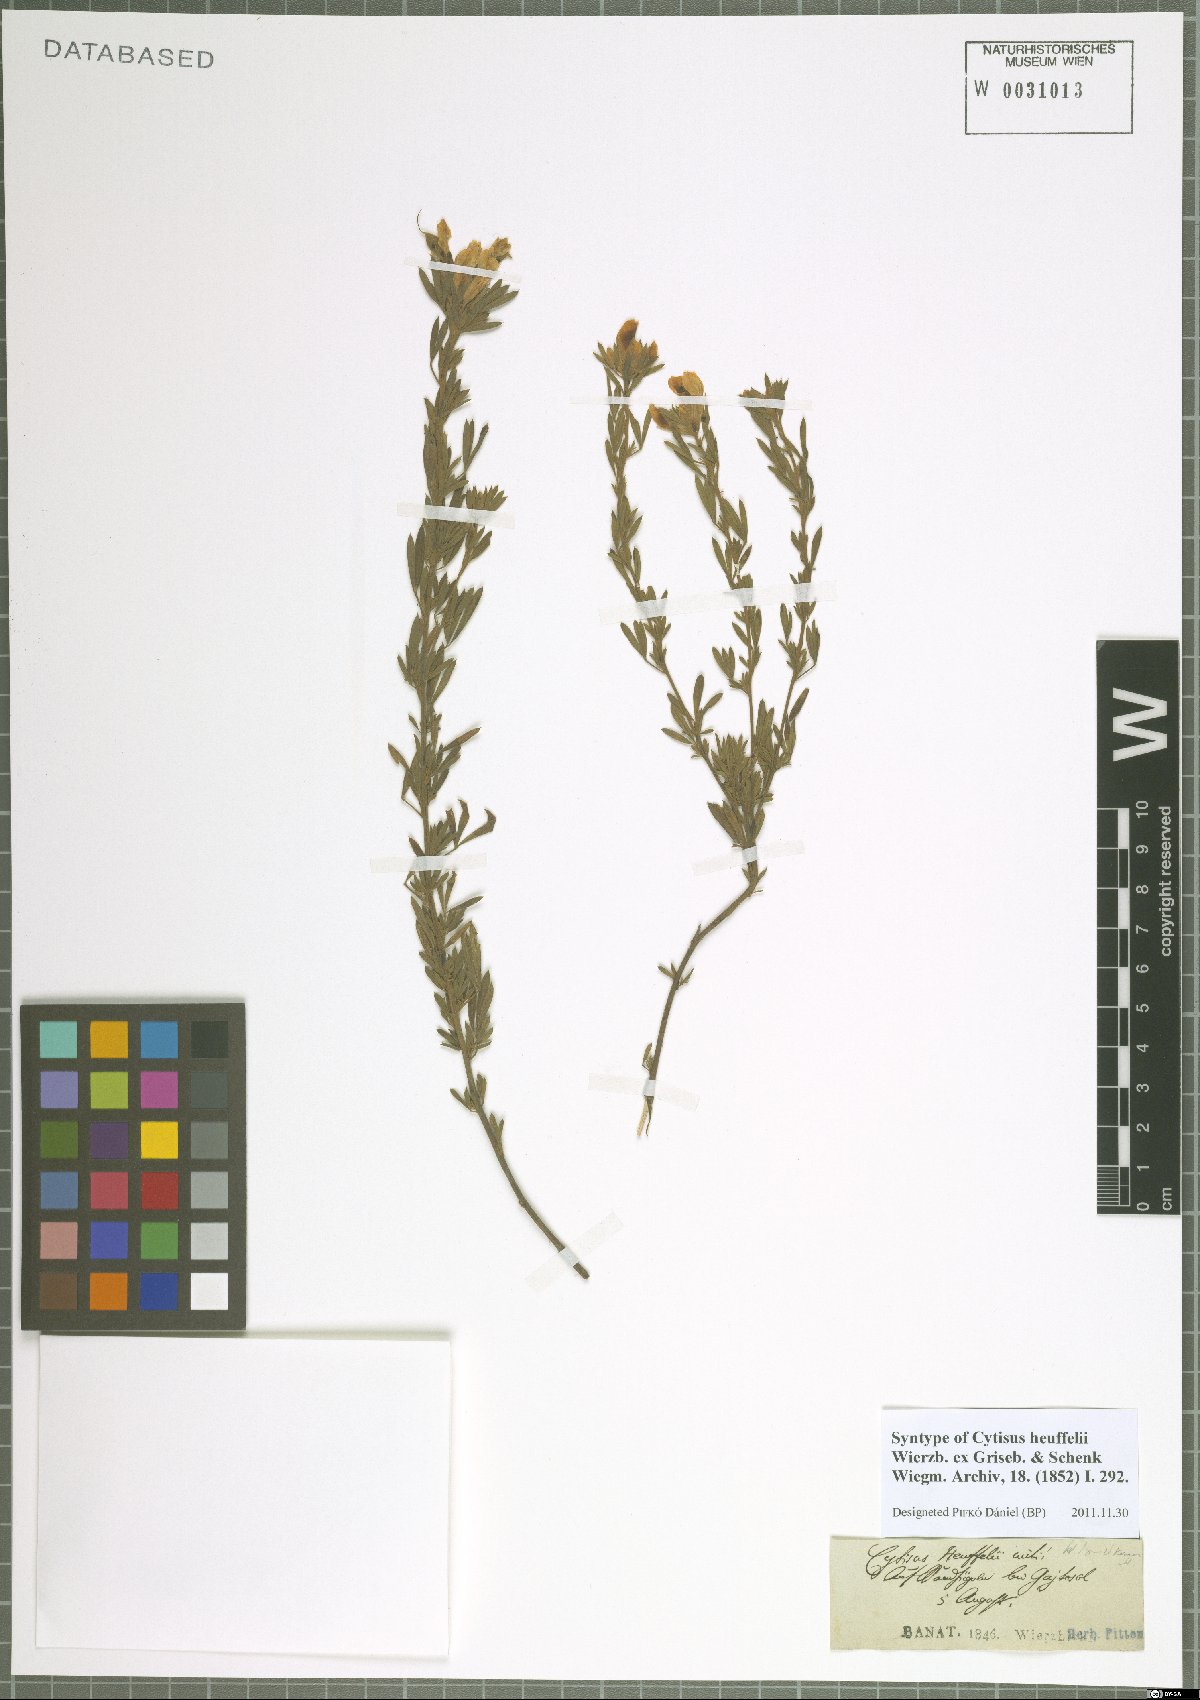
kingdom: Plantae
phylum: Tracheophyta
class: Magnoliopsida
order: Fabales
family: Fabaceae
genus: Cytisophyllum
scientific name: Cytisophyllum Cytisus heuffelii
